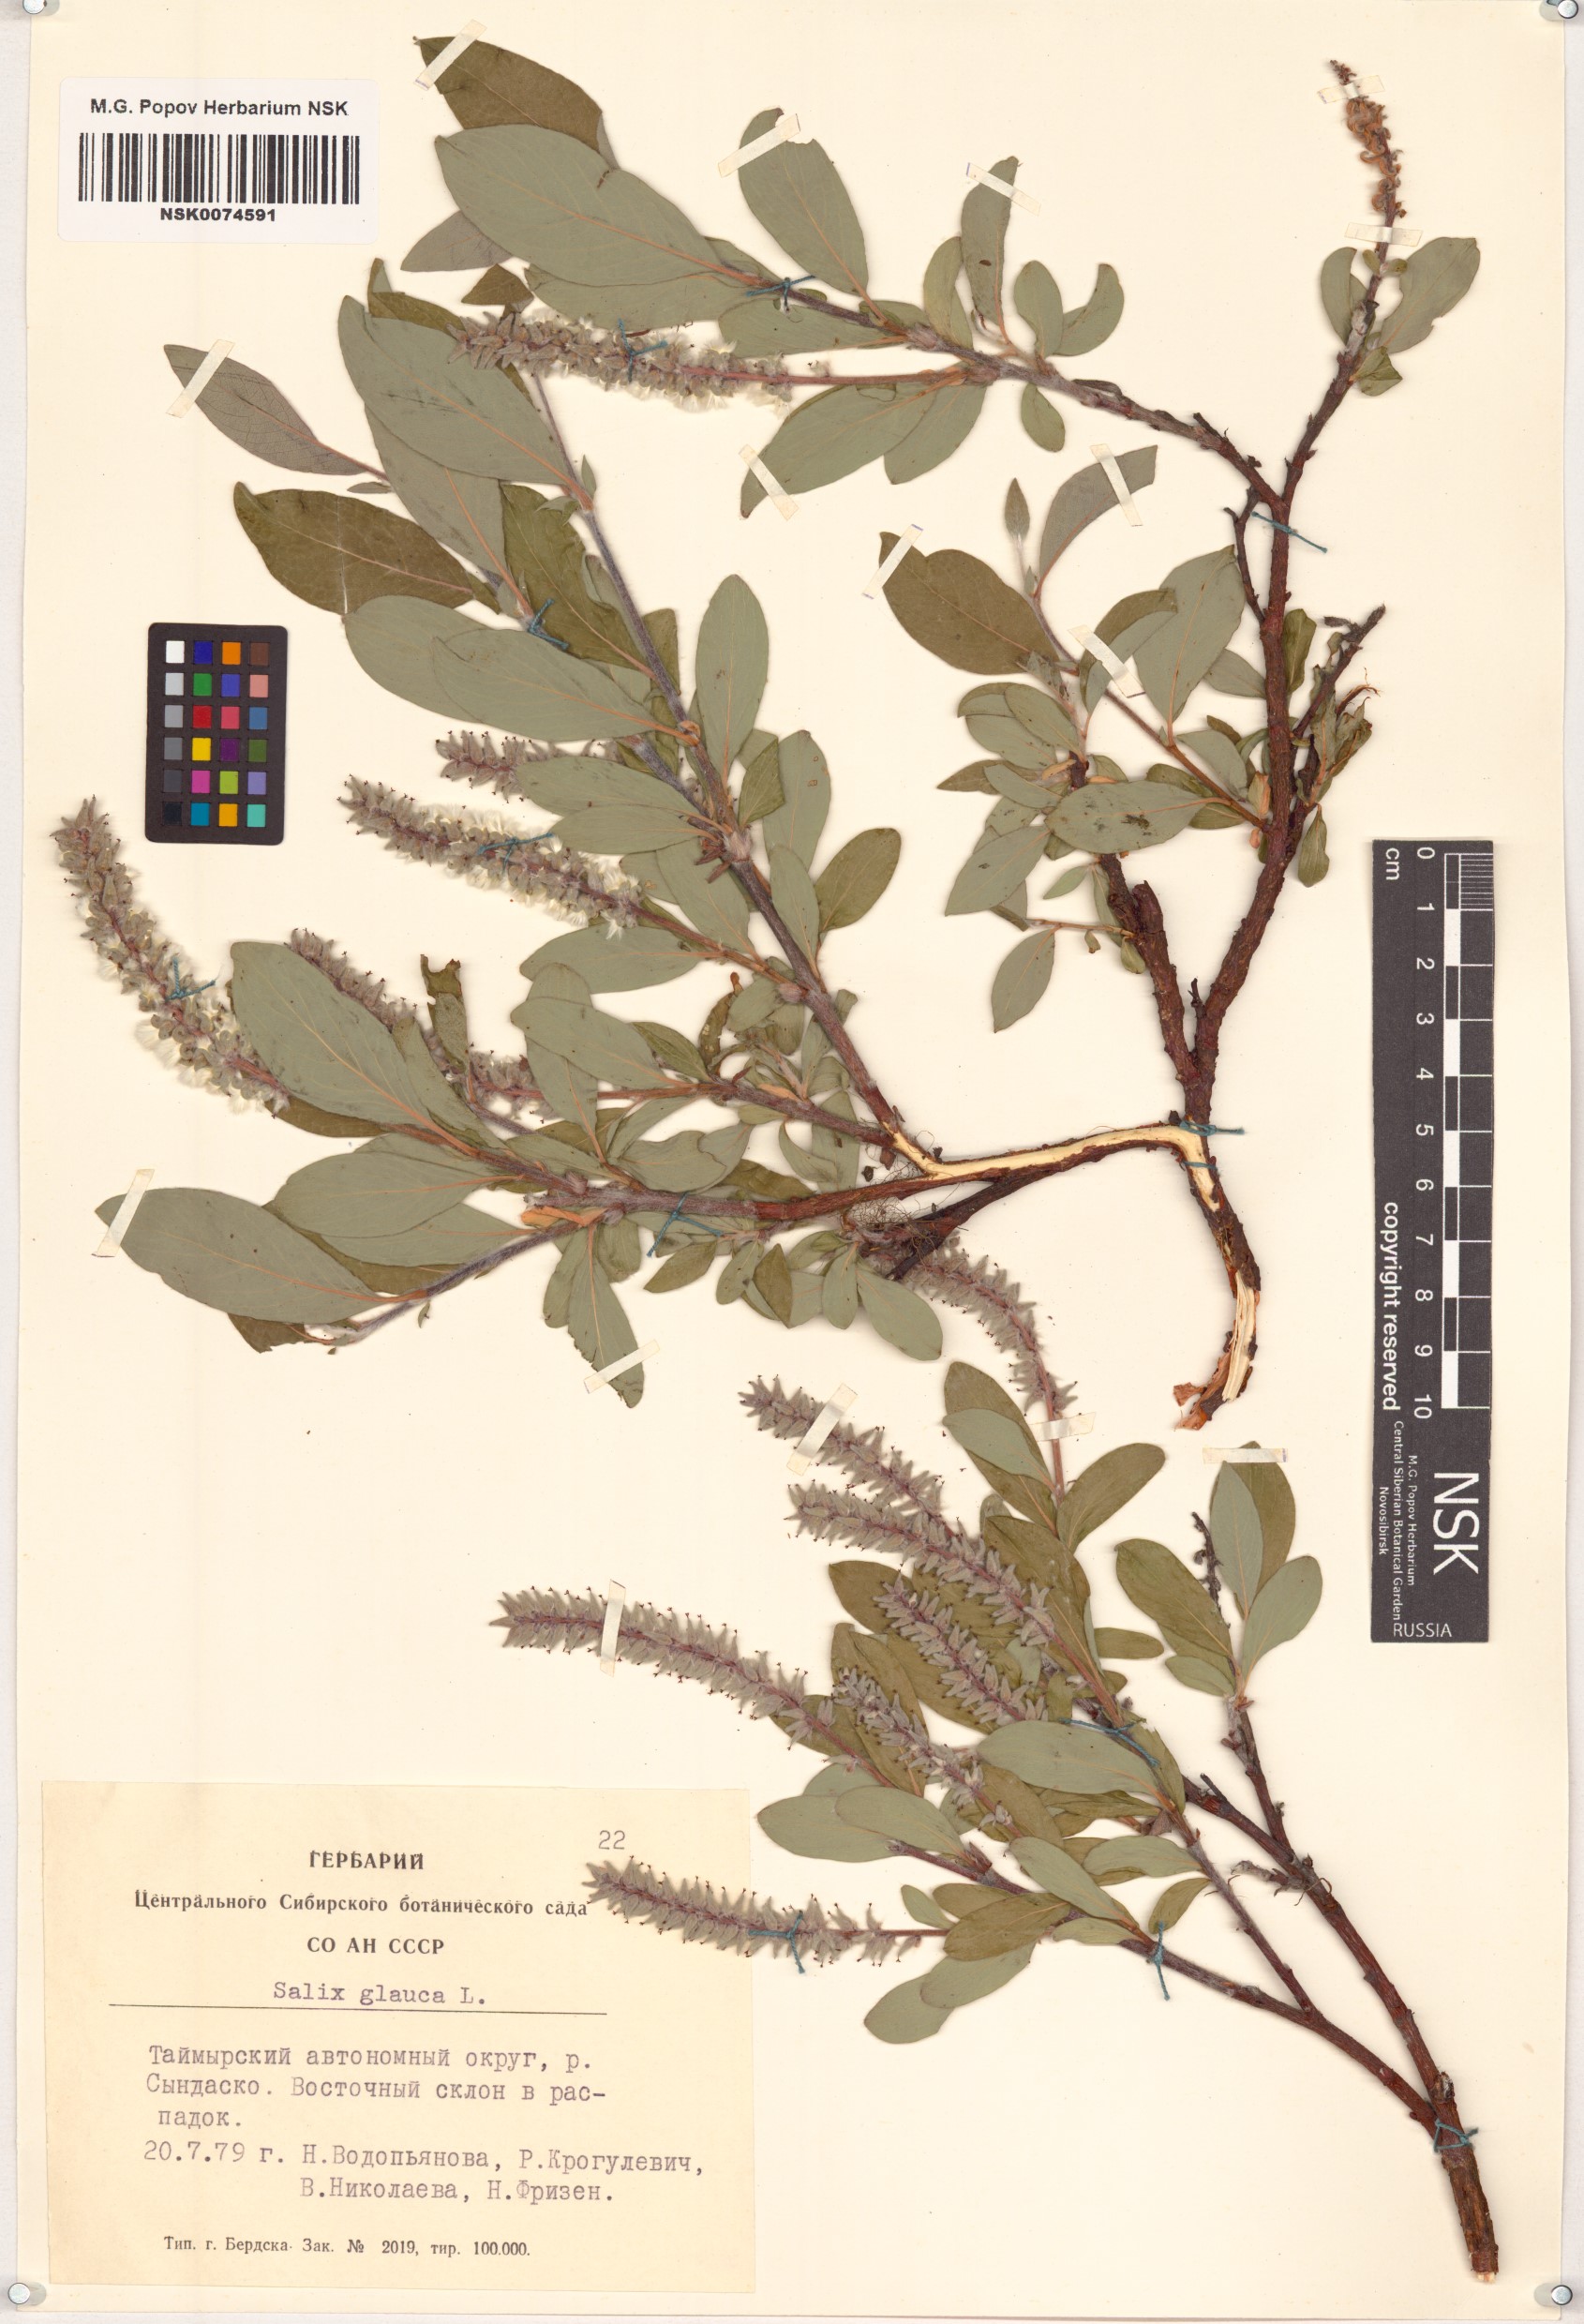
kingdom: Plantae
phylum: Tracheophyta
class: Magnoliopsida
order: Malpighiales
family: Salicaceae
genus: Salix
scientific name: Salix glauca
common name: Glaucous willow
